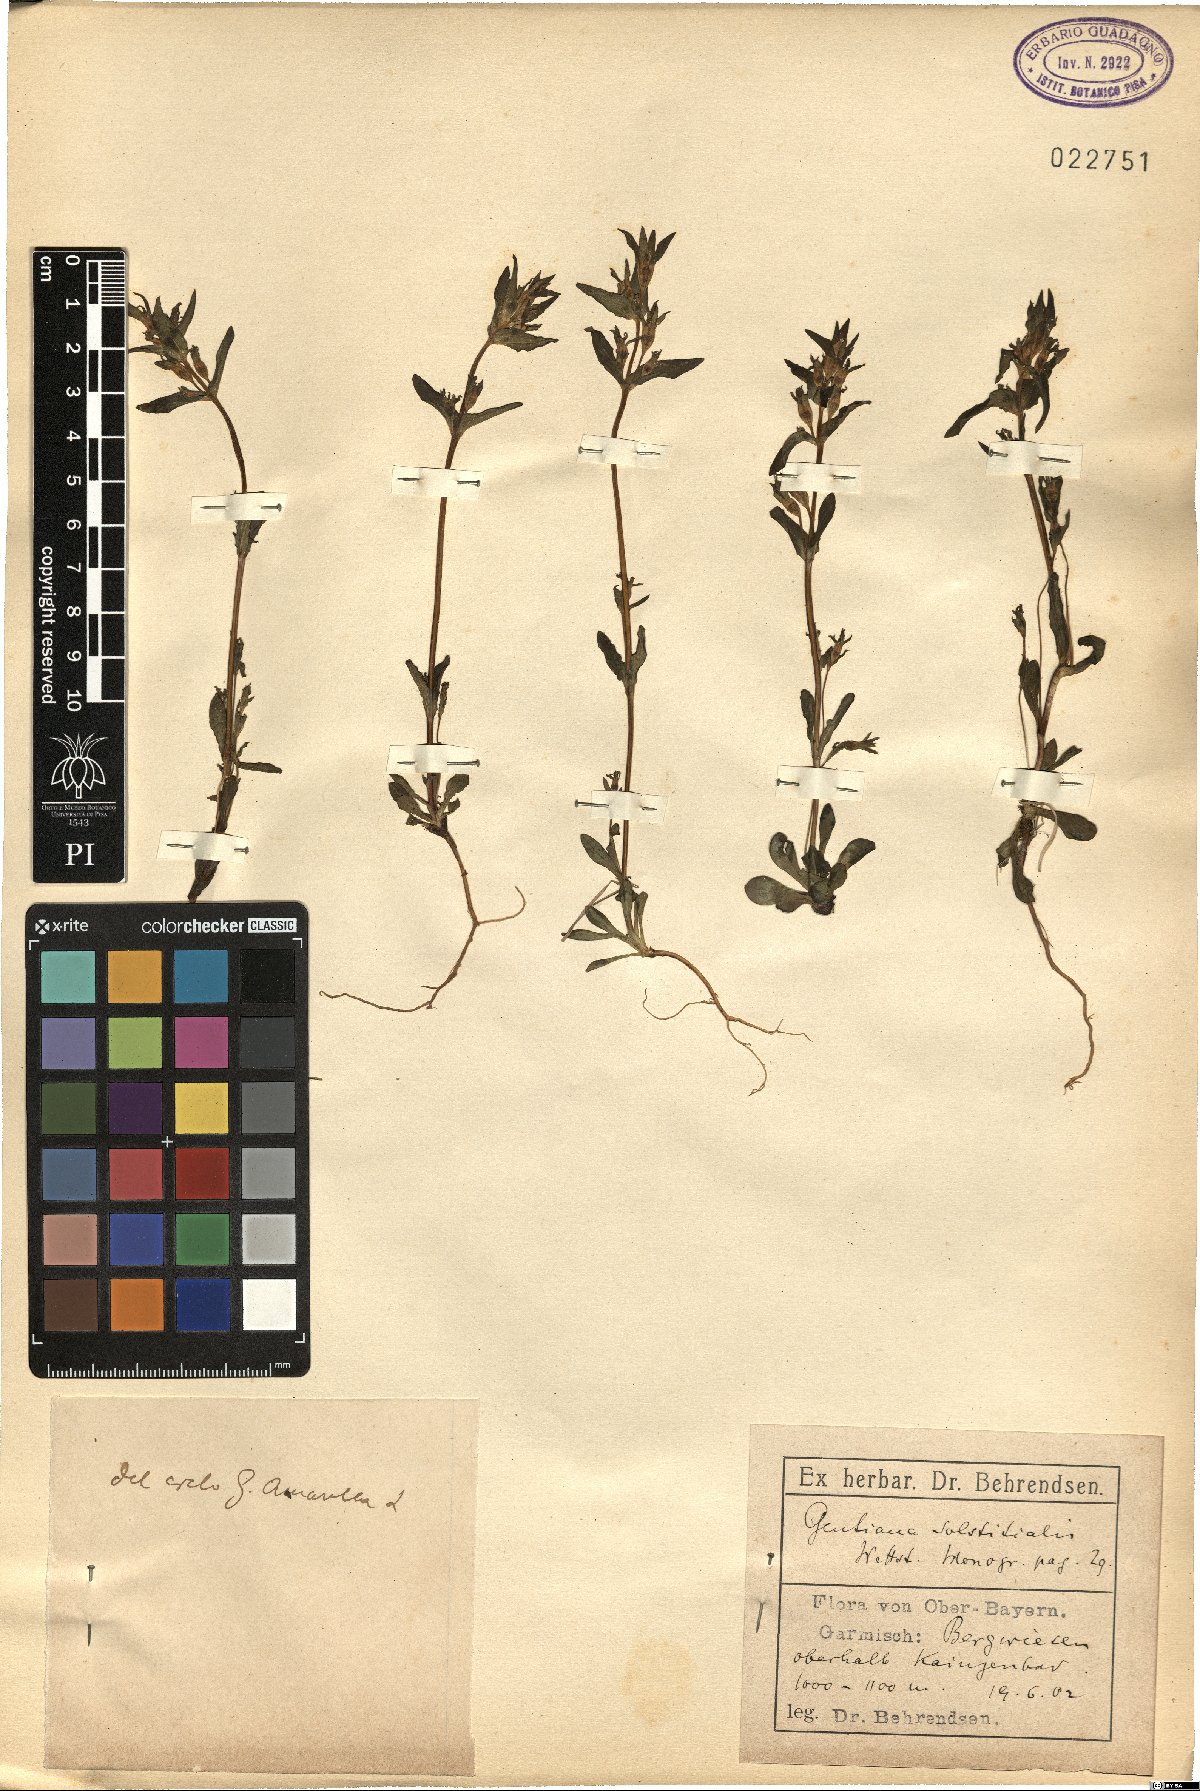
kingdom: Plantae
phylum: Tracheophyta
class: Magnoliopsida
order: Gentianales
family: Gentianaceae
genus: Gentianella
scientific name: Gentianella amarella
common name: Autumn gentian
